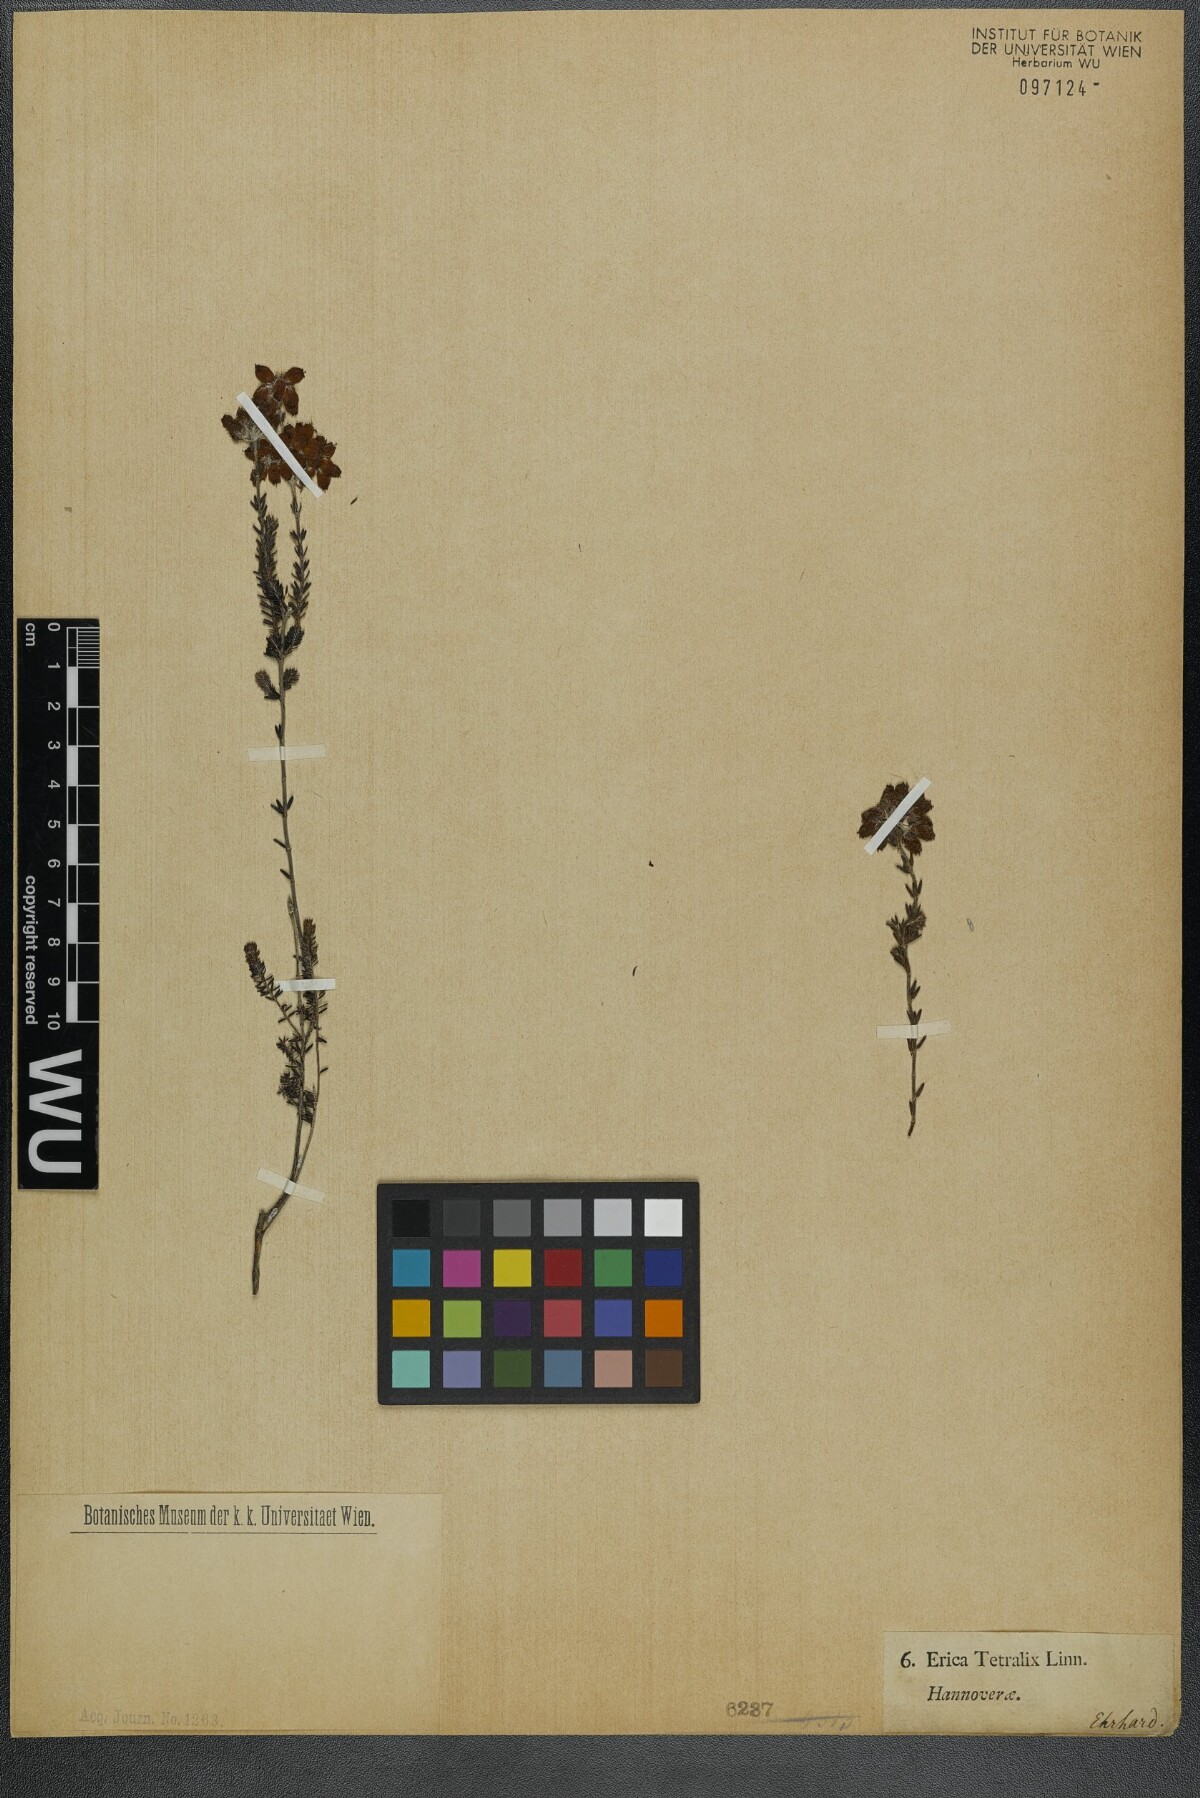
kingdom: Plantae
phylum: Tracheophyta
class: Magnoliopsida
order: Ericales
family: Ericaceae
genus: Erica
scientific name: Erica tetralix
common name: Cross-leaved heath
